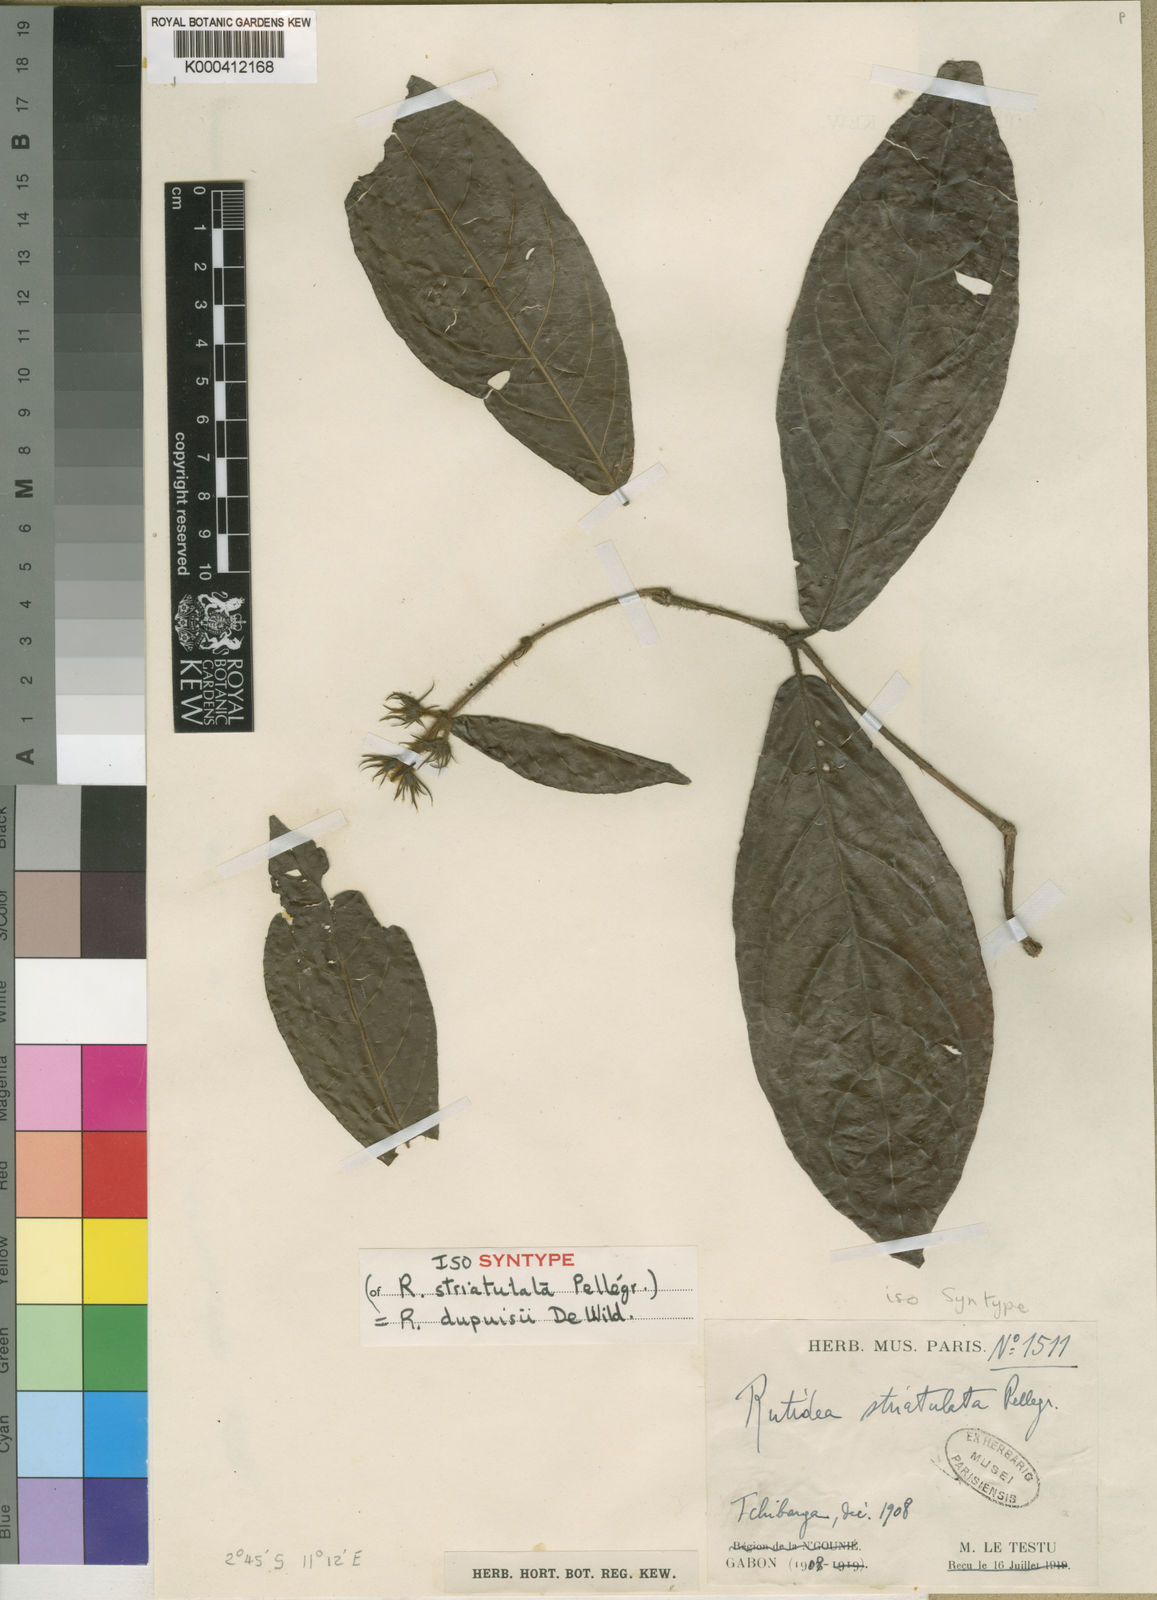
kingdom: Plantae
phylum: Tracheophyta
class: Magnoliopsida
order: Gentianales
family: Rubiaceae
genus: Rutidea
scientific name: Rutidea dupuisii
